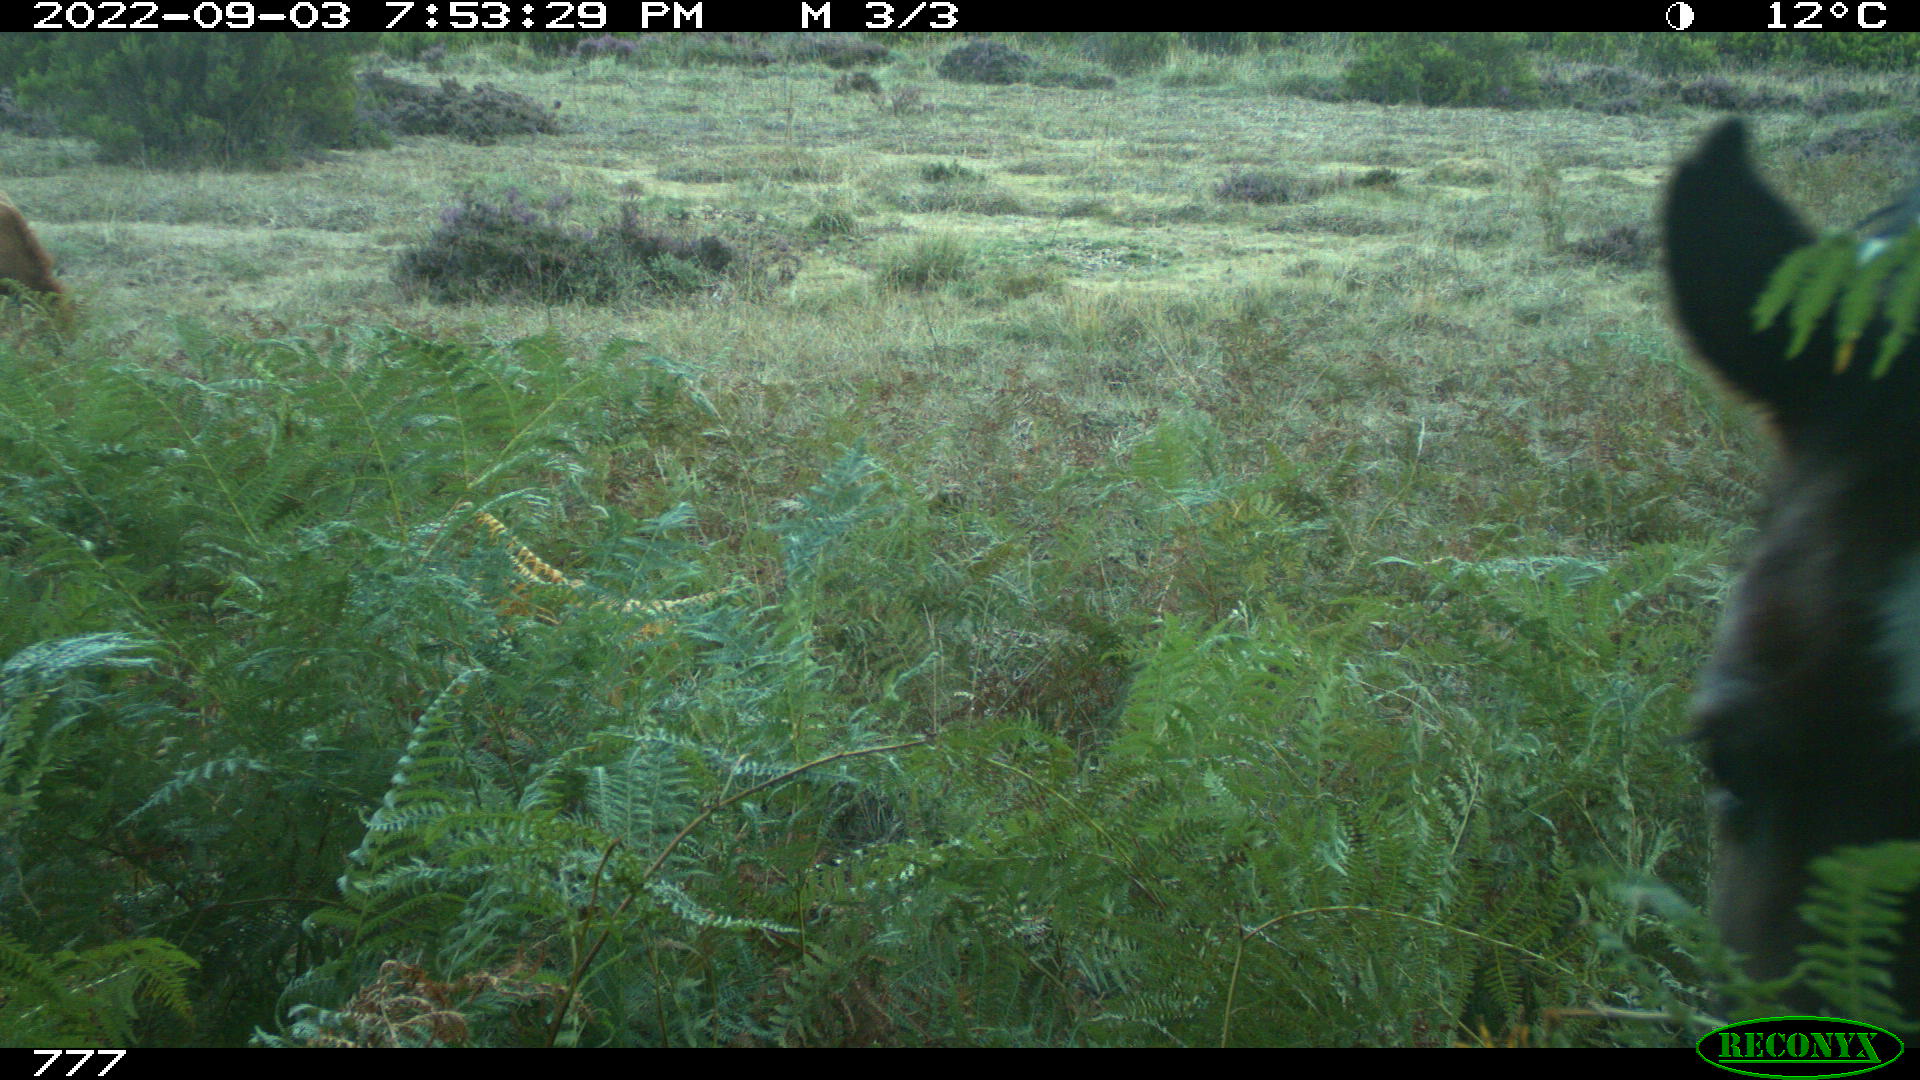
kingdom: Animalia
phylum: Chordata
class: Mammalia
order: Perissodactyla
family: Equidae
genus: Equus
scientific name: Equus caballus
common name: Horse
